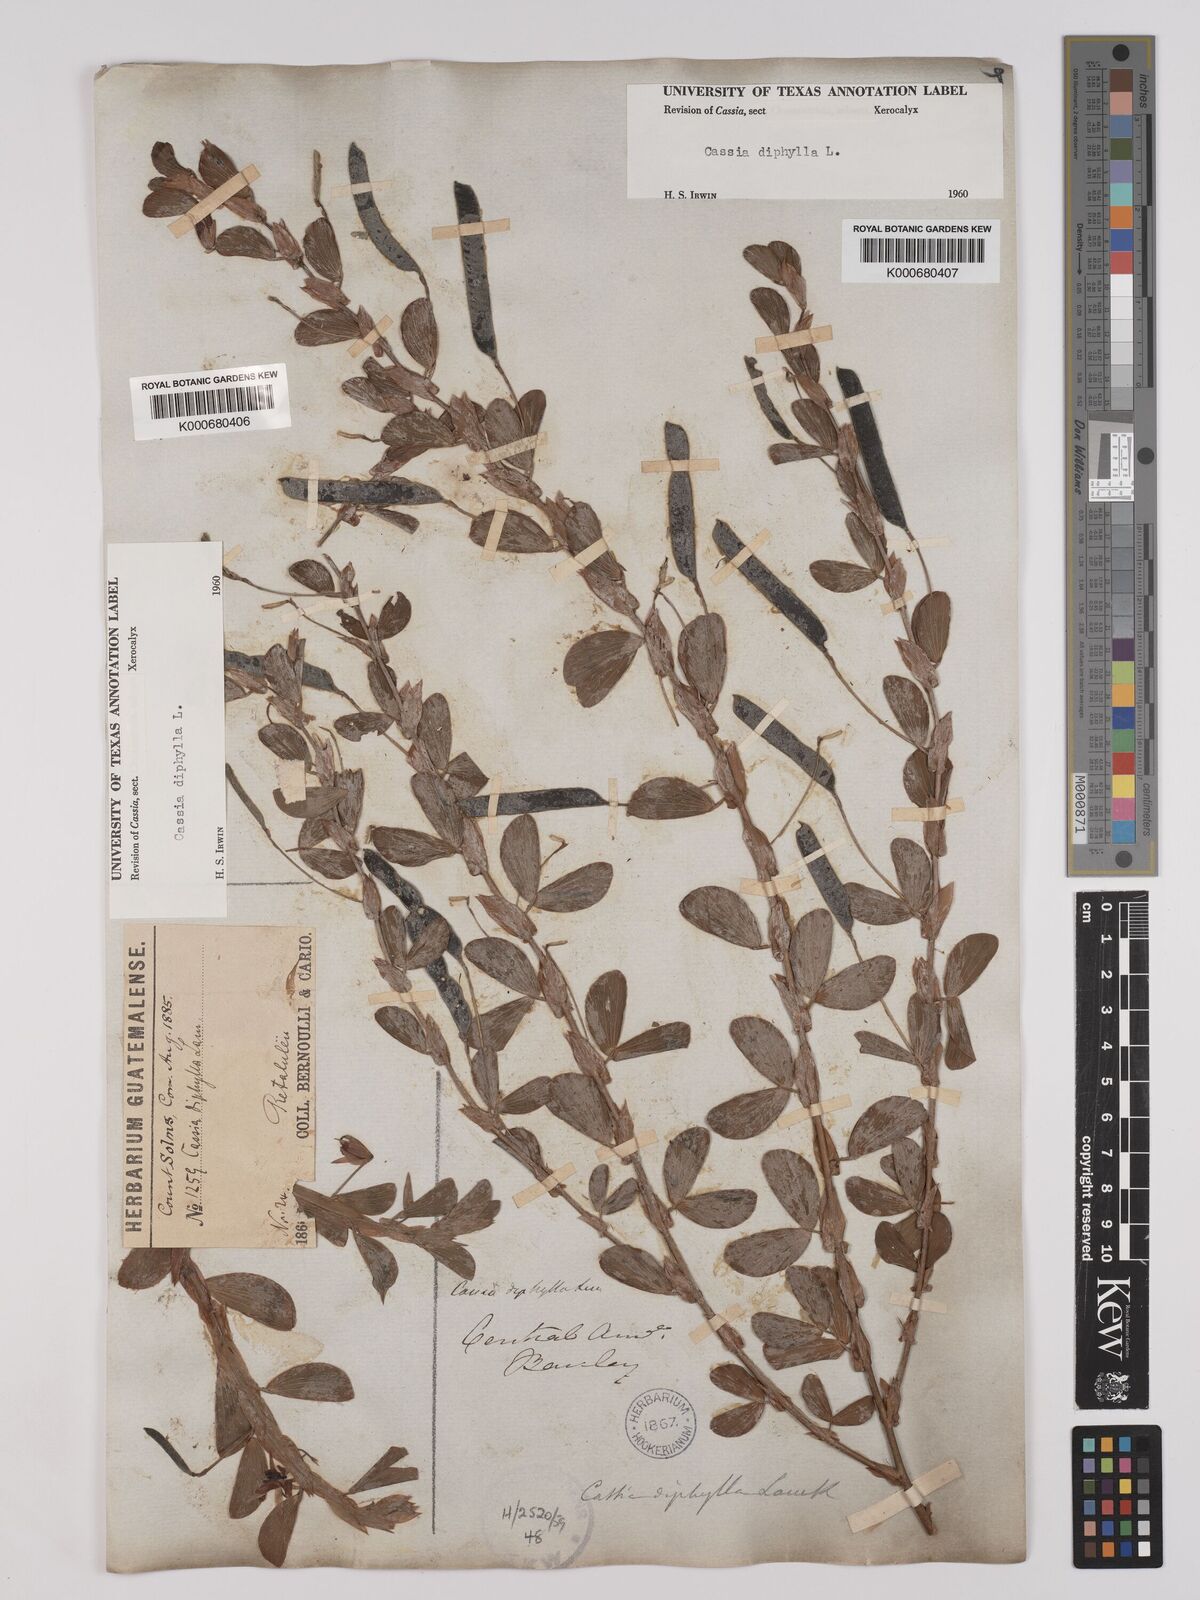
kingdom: Plantae
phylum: Tracheophyta
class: Magnoliopsida
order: Fabales
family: Fabaceae
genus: Chamaecrista
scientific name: Chamaecrista diphylla
